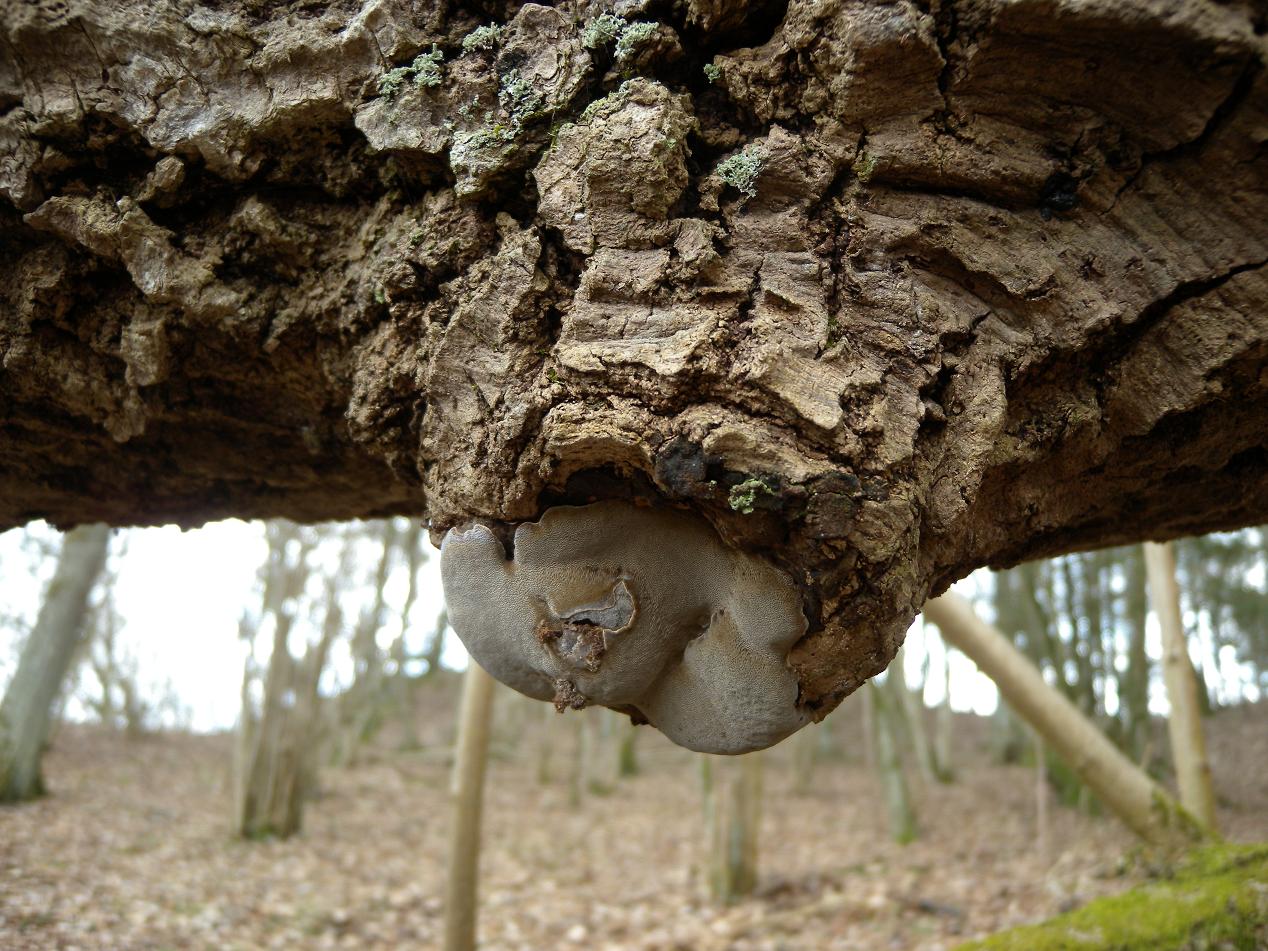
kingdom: Fungi
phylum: Basidiomycota
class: Agaricomycetes
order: Hymenochaetales
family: Hymenochaetaceae
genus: Phellinus
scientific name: Phellinus tremulae
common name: aspe-ildporesvamp
